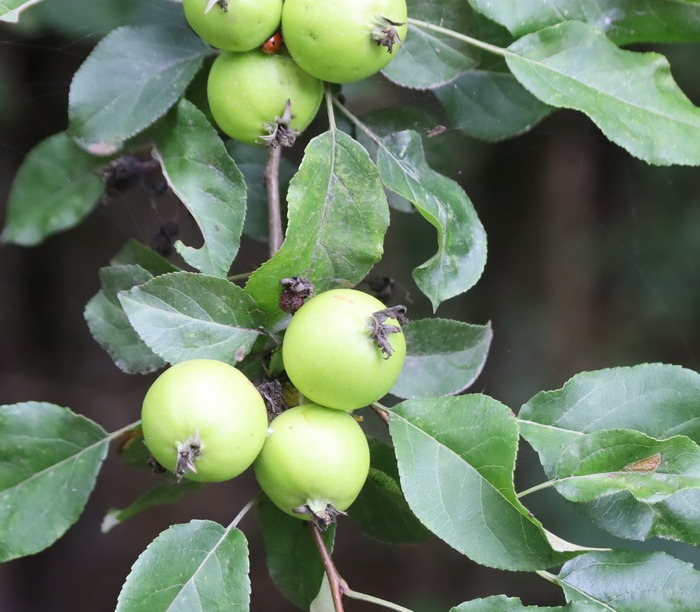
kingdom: Plantae
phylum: Tracheophyta
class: Magnoliopsida
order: Rosales
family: Rosaceae
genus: Malus
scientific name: Malus
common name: Æbleslægten
